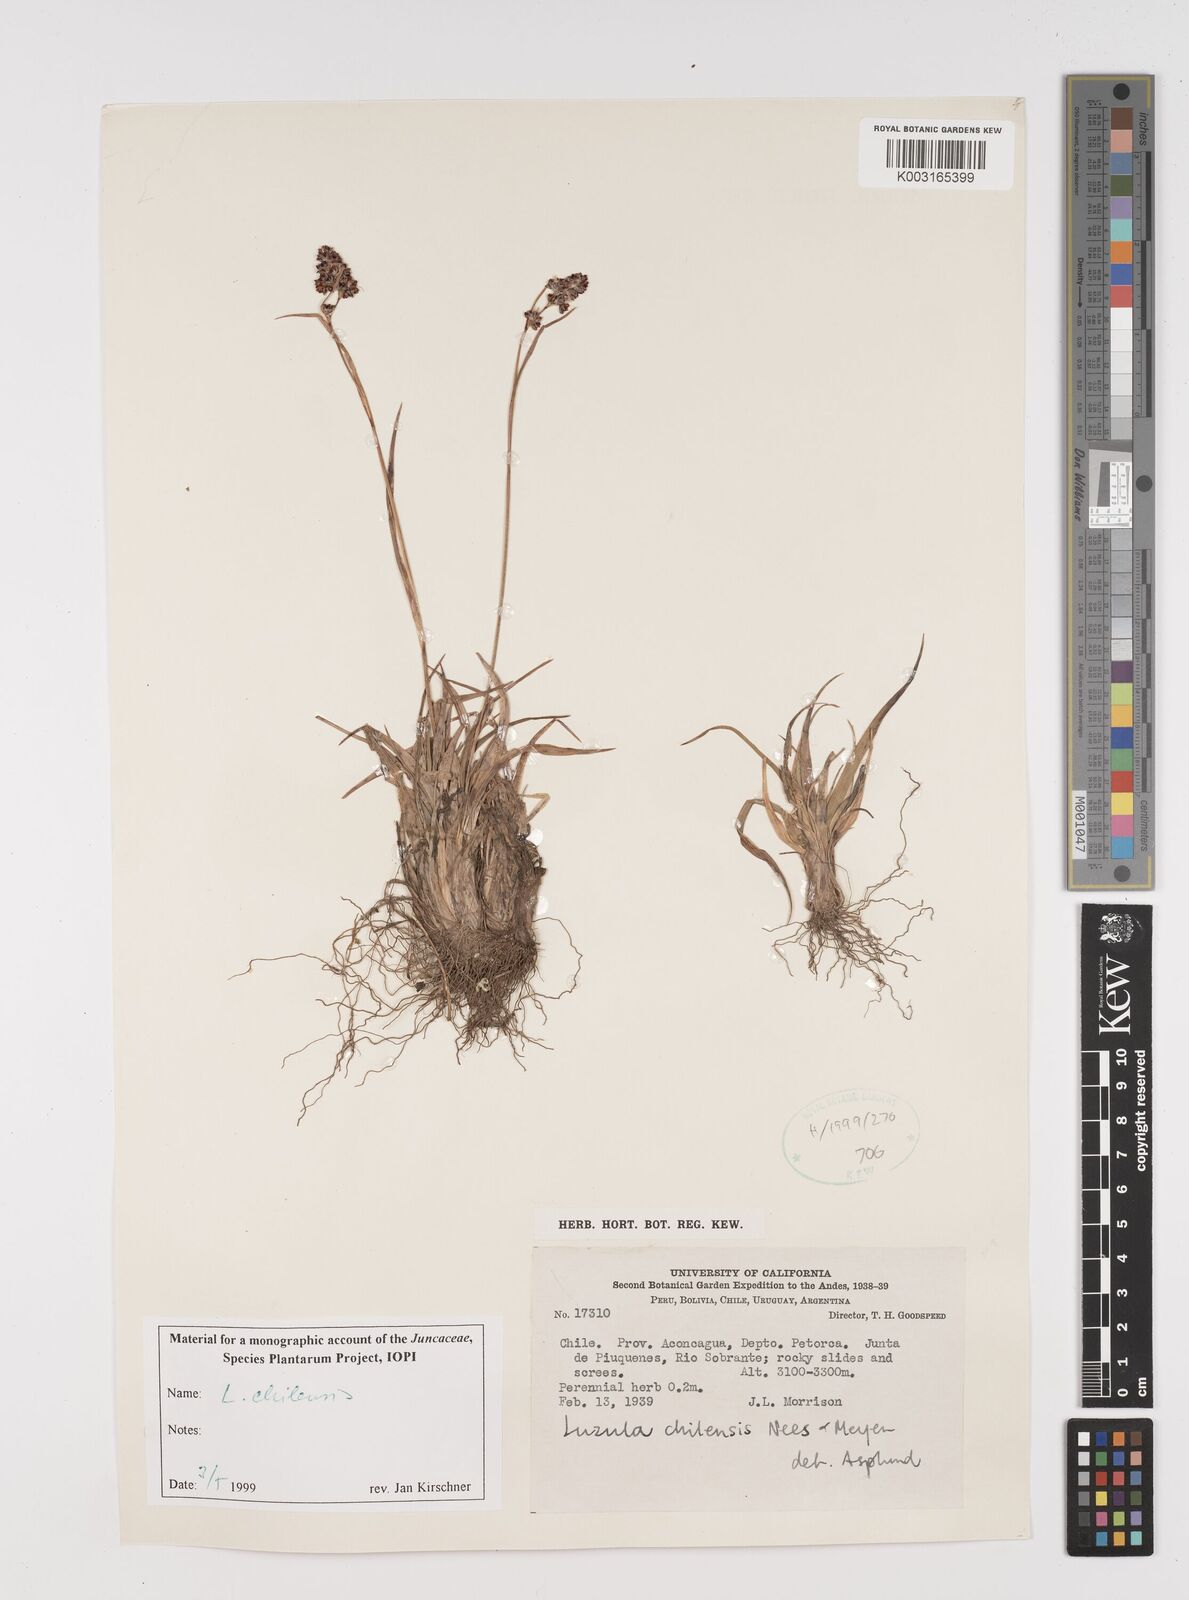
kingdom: Plantae
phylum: Tracheophyta
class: Liliopsida
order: Poales
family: Juncaceae
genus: Luzula
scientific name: Luzula chilensis
